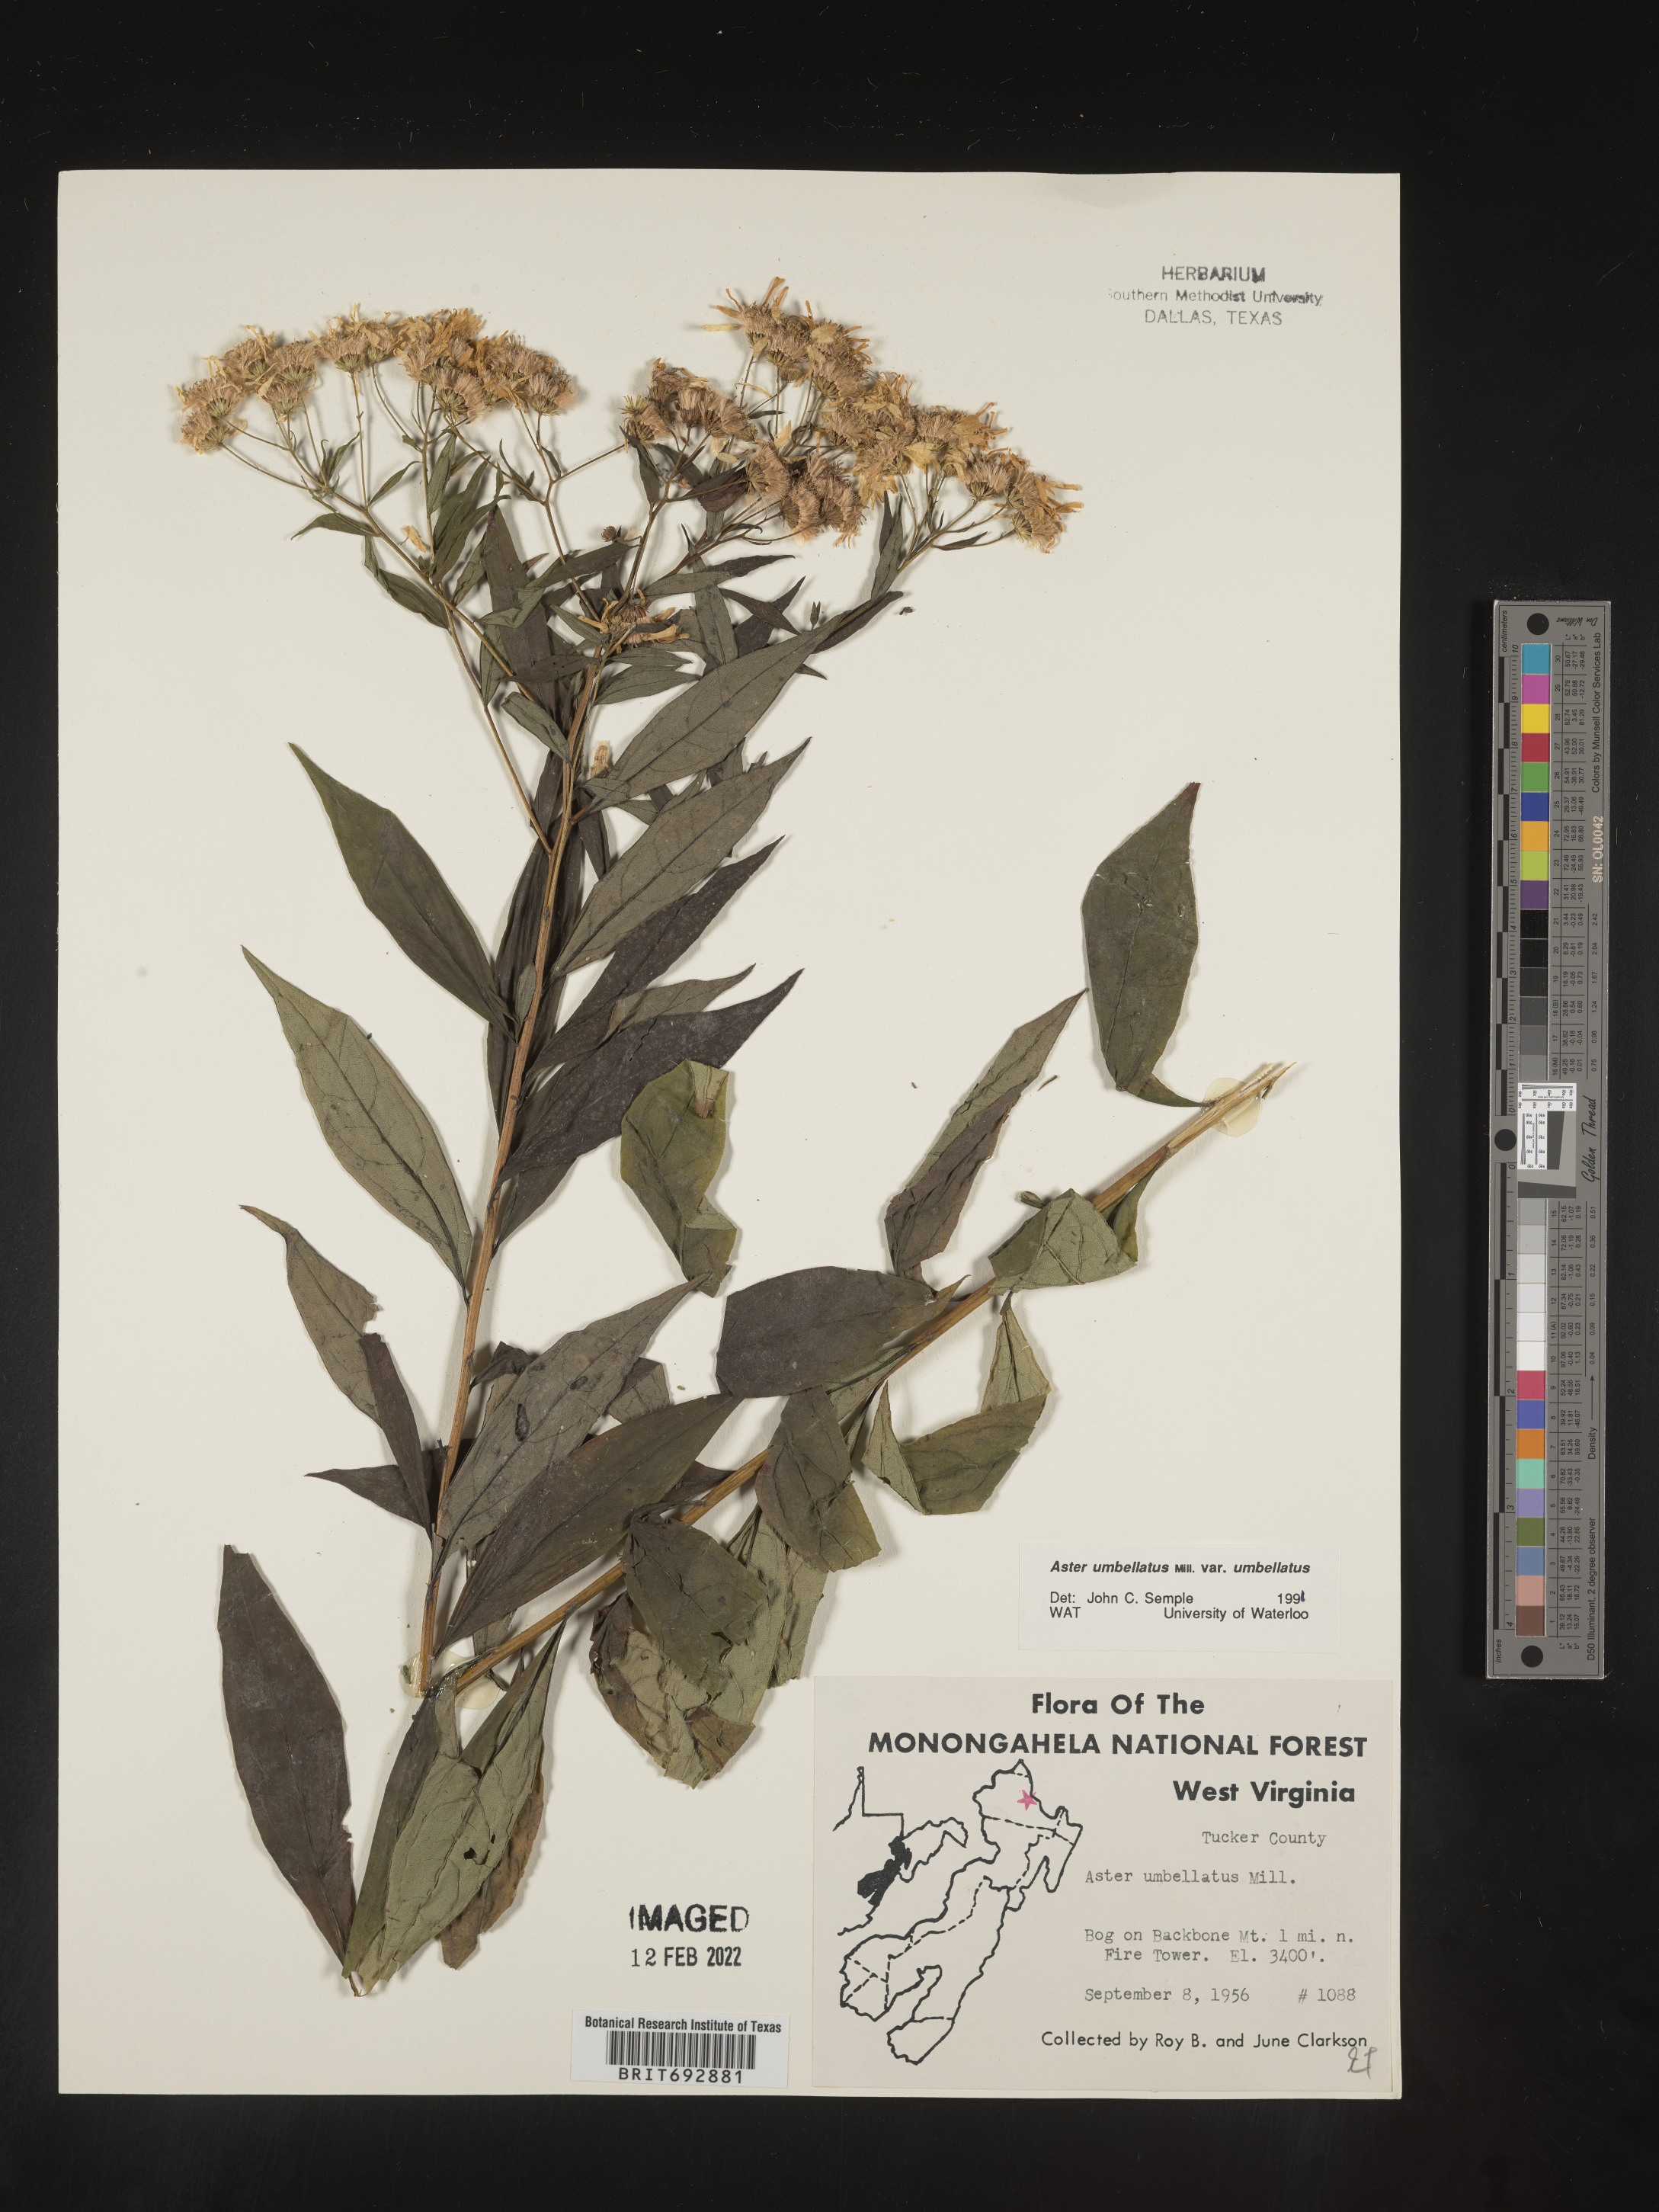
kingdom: Plantae
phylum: Tracheophyta
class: Magnoliopsida
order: Asterales
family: Asteraceae
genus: Doellingeria
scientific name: Doellingeria umbellata
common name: Flat-top white aster
